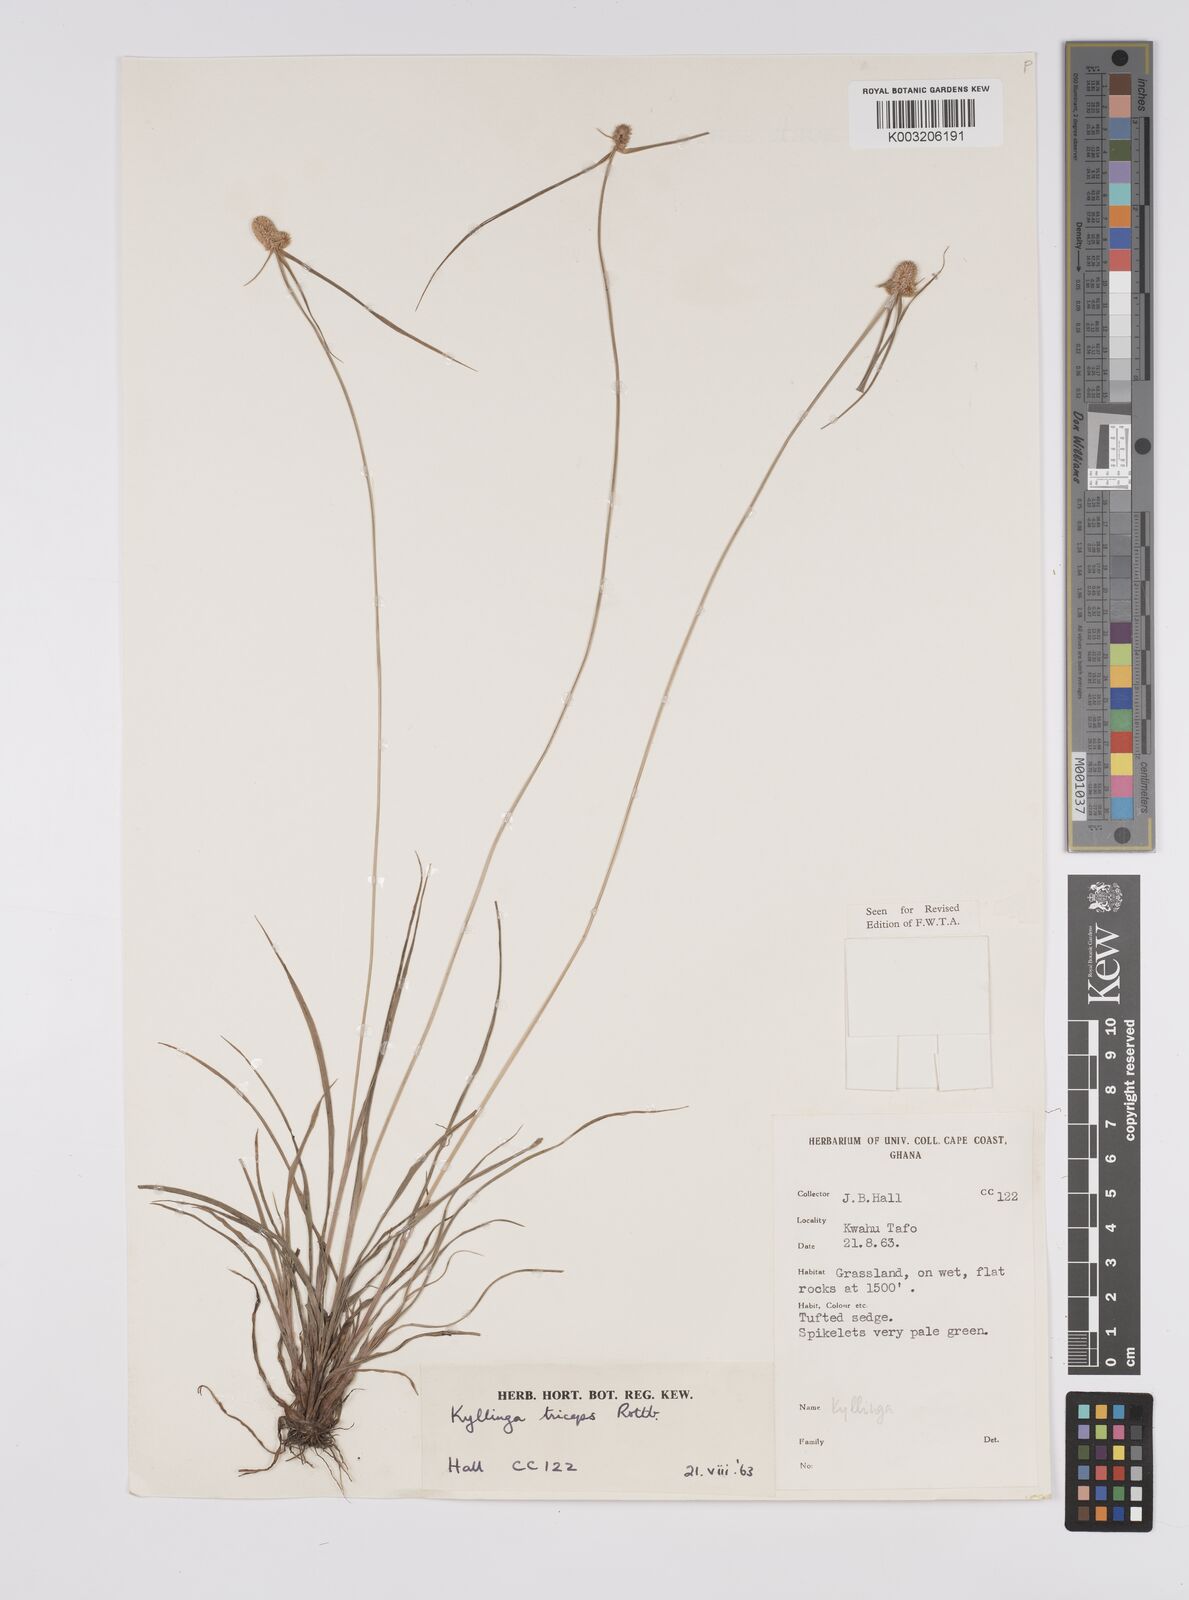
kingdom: Plantae
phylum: Tracheophyta
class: Liliopsida
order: Poales
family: Cyperaceae
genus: Cyperus
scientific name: Cyperus
